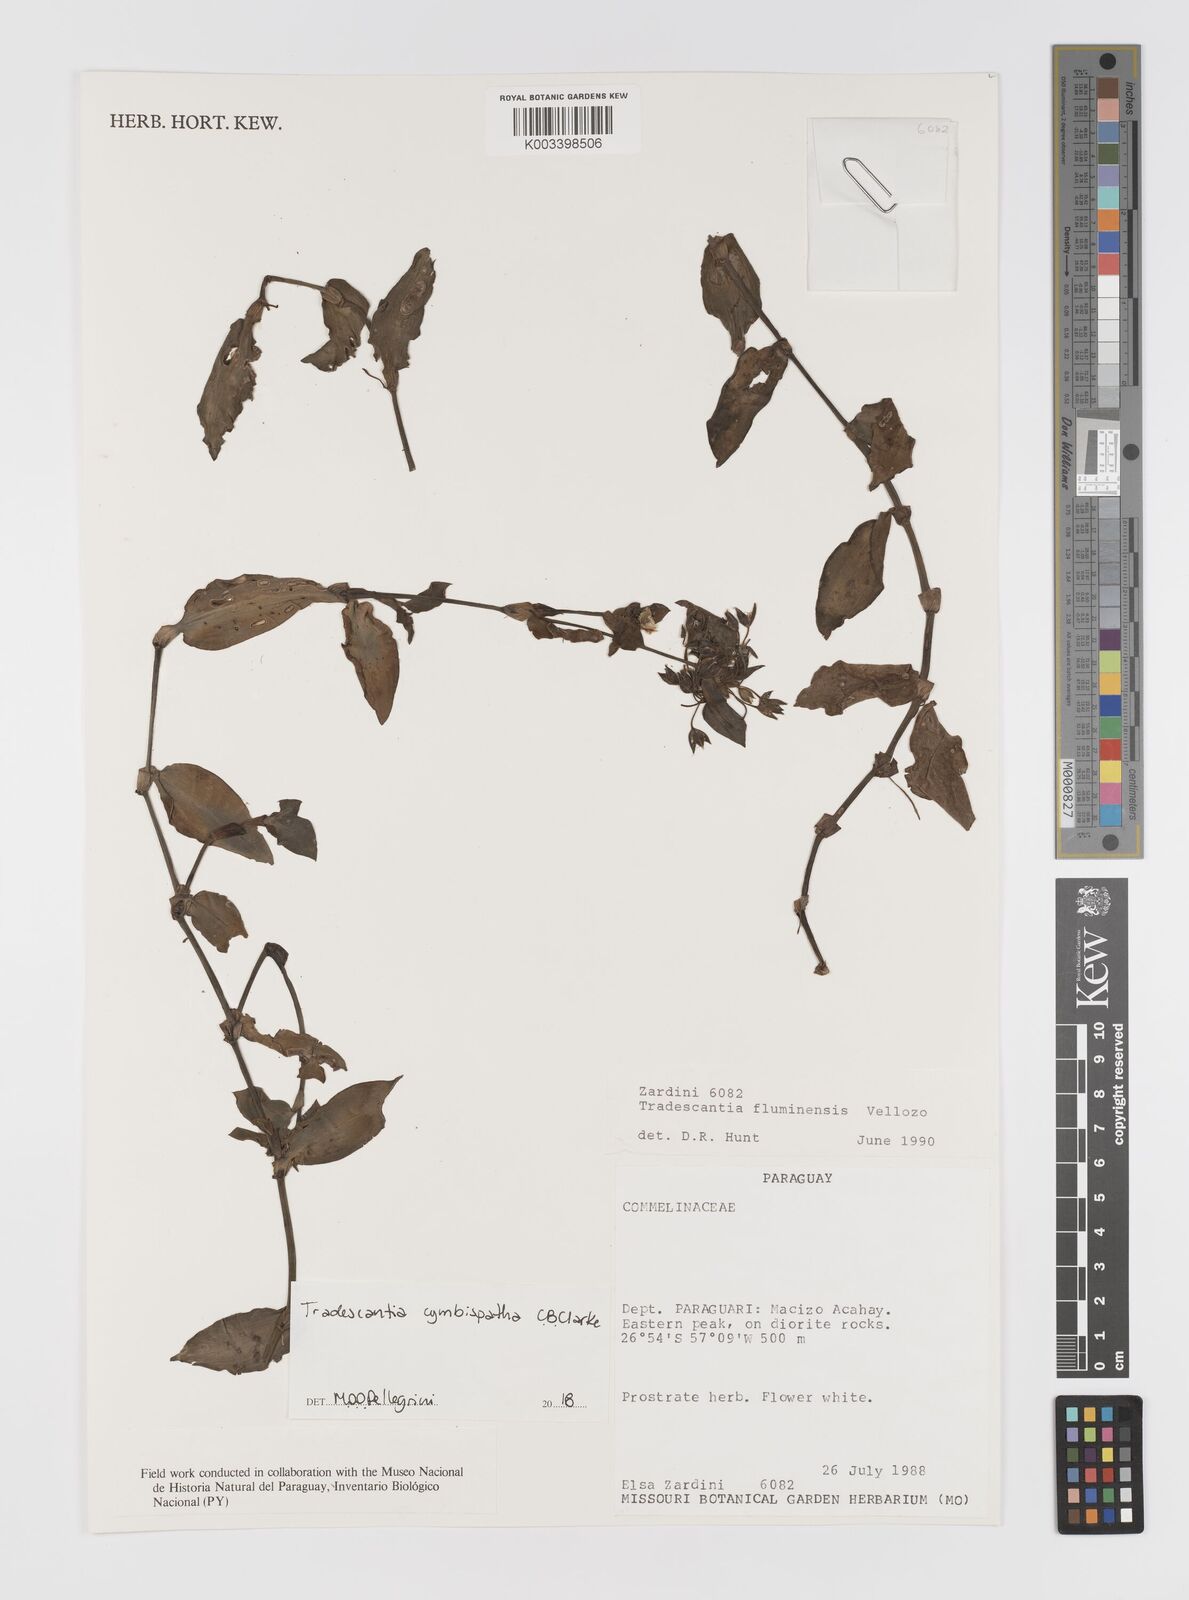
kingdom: Plantae
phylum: Tracheophyta
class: Liliopsida
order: Commelinales
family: Commelinaceae
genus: Tradescantia
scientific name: Tradescantia cymbispatha
